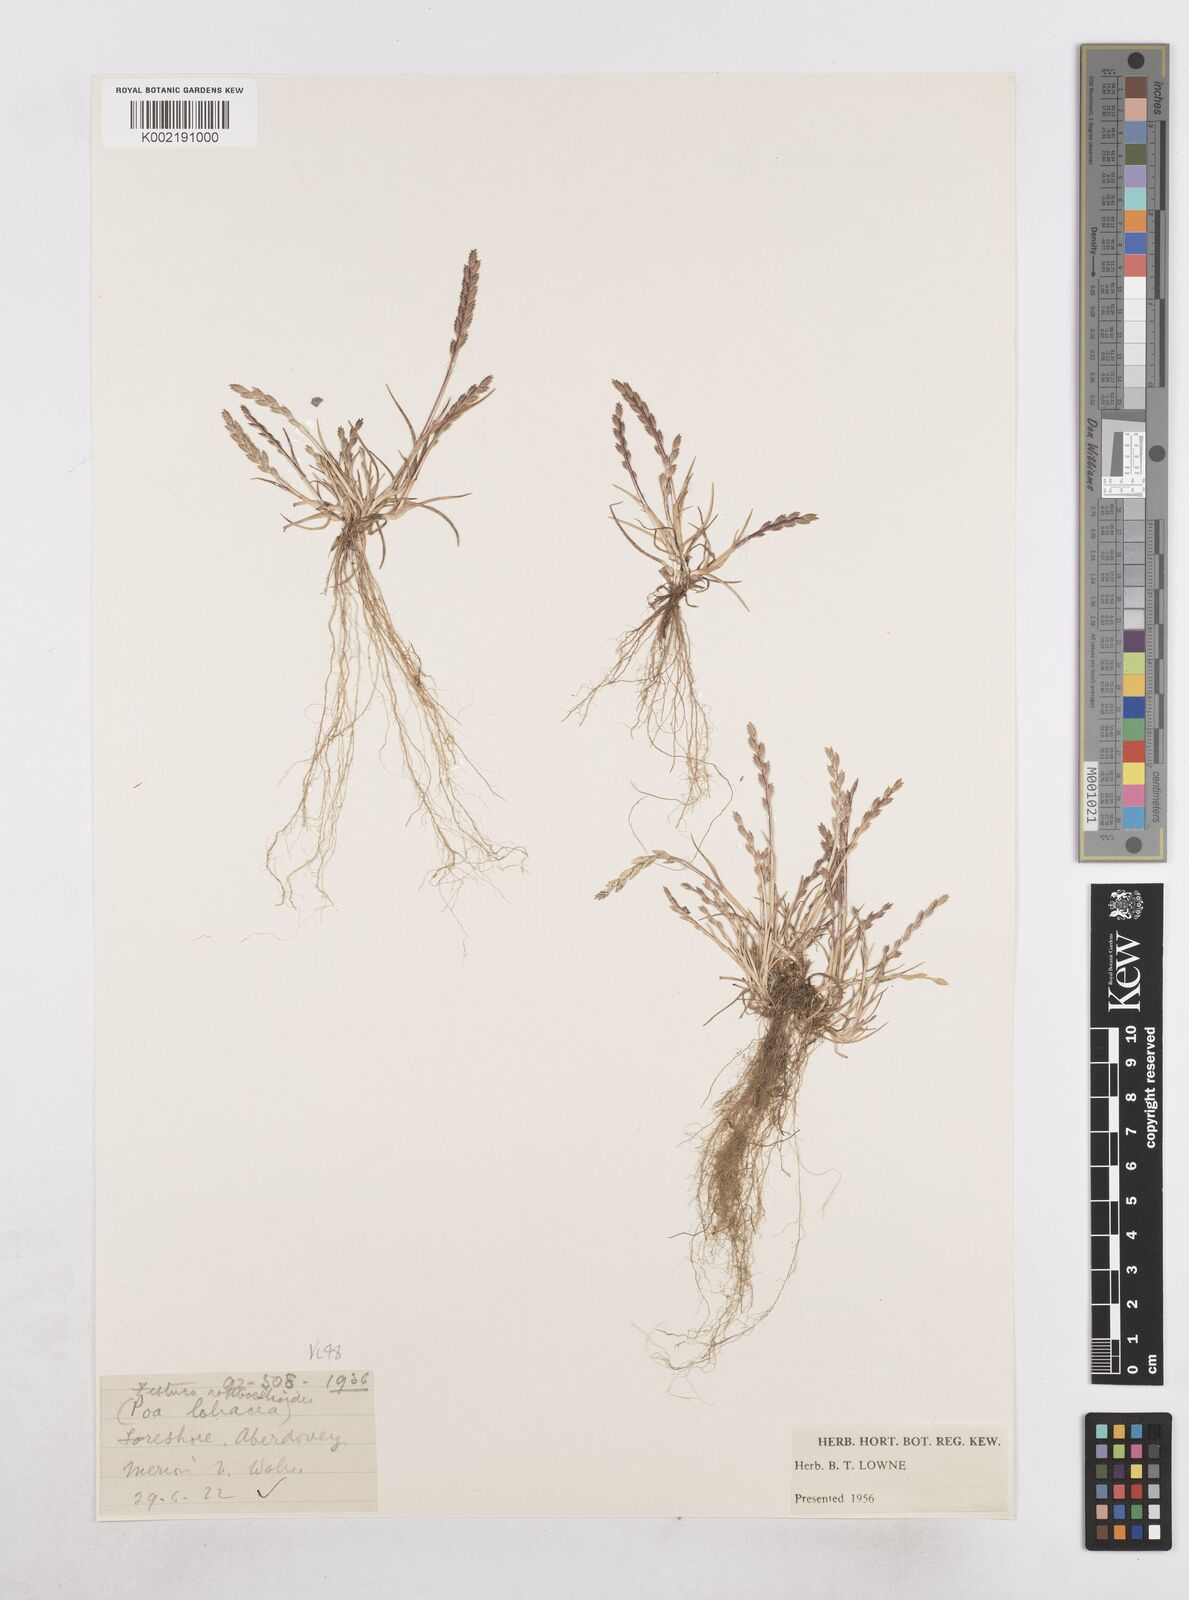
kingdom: Plantae
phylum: Tracheophyta
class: Liliopsida
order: Poales
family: Poaceae
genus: Catapodium
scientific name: Catapodium marinum
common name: Sea fern-grass
